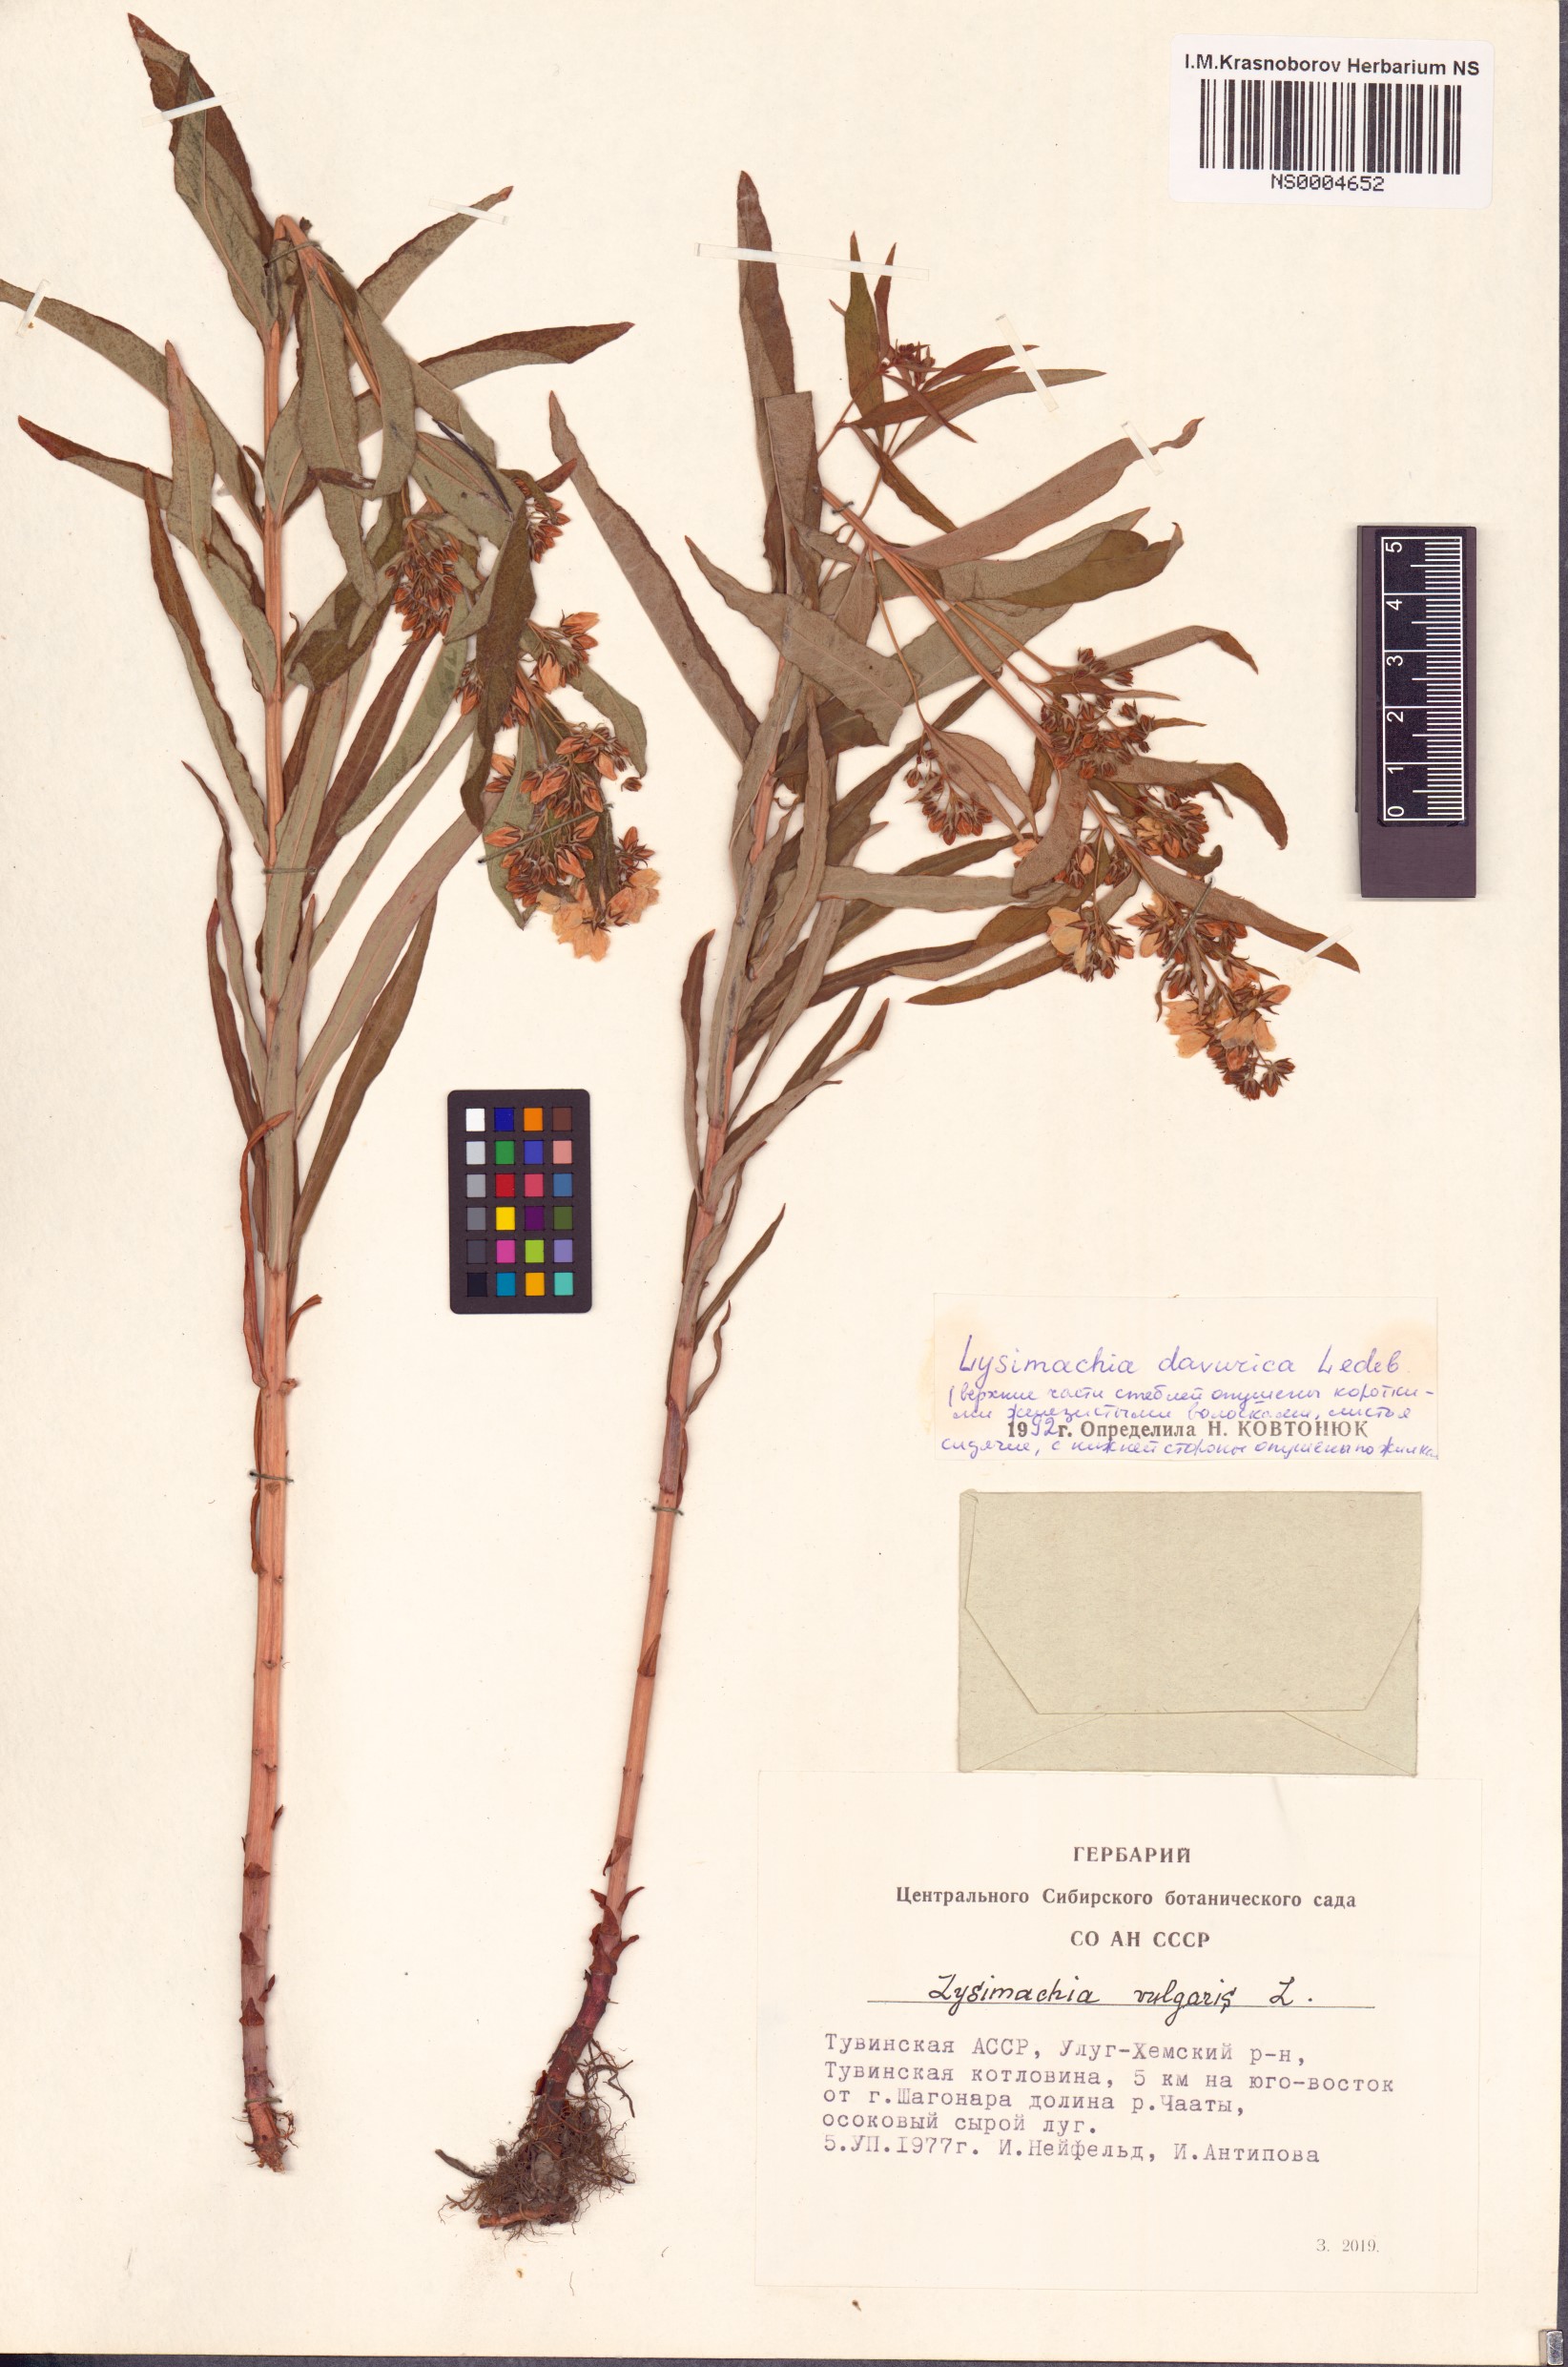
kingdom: Plantae
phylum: Tracheophyta
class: Magnoliopsida
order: Ericales
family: Primulaceae
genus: Lysimachia
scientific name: Lysimachia davurica
